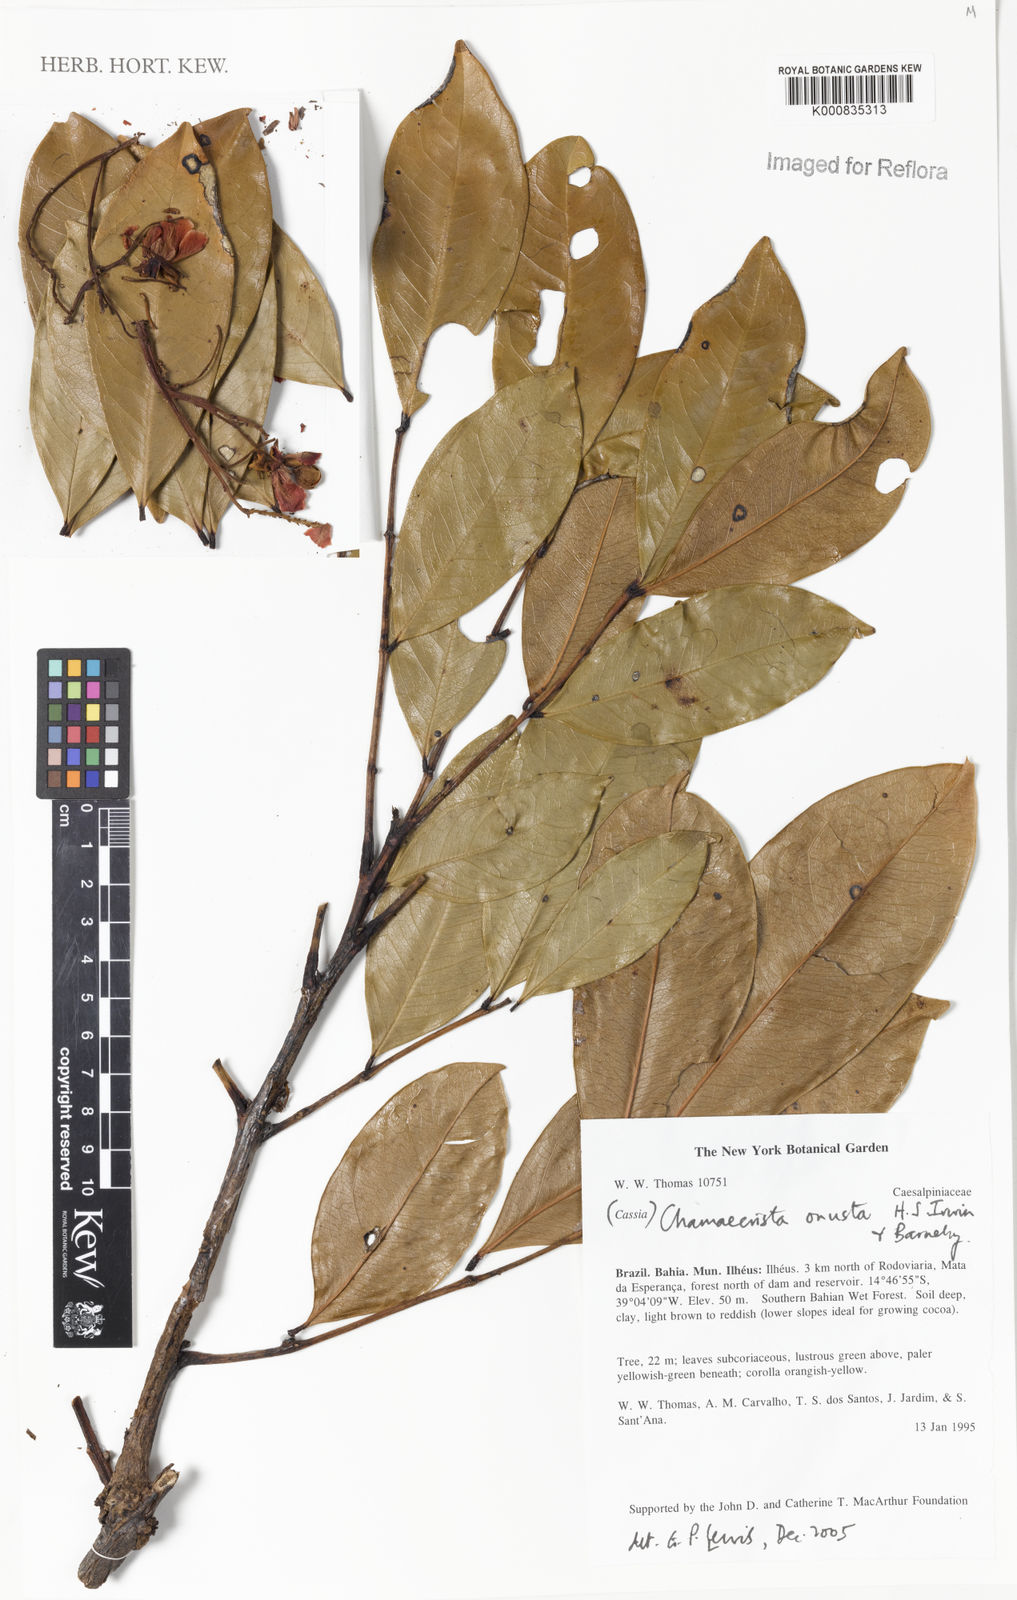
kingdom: Plantae
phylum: Tracheophyta
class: Magnoliopsida
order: Fabales
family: Fabaceae
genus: Chamaecrista
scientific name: Chamaecrista onusta
